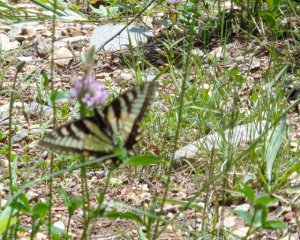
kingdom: Animalia
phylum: Arthropoda
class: Insecta
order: Lepidoptera
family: Papilionidae
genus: Pterourus
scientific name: Pterourus canadensis
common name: Canadian Tiger Swallowtail
